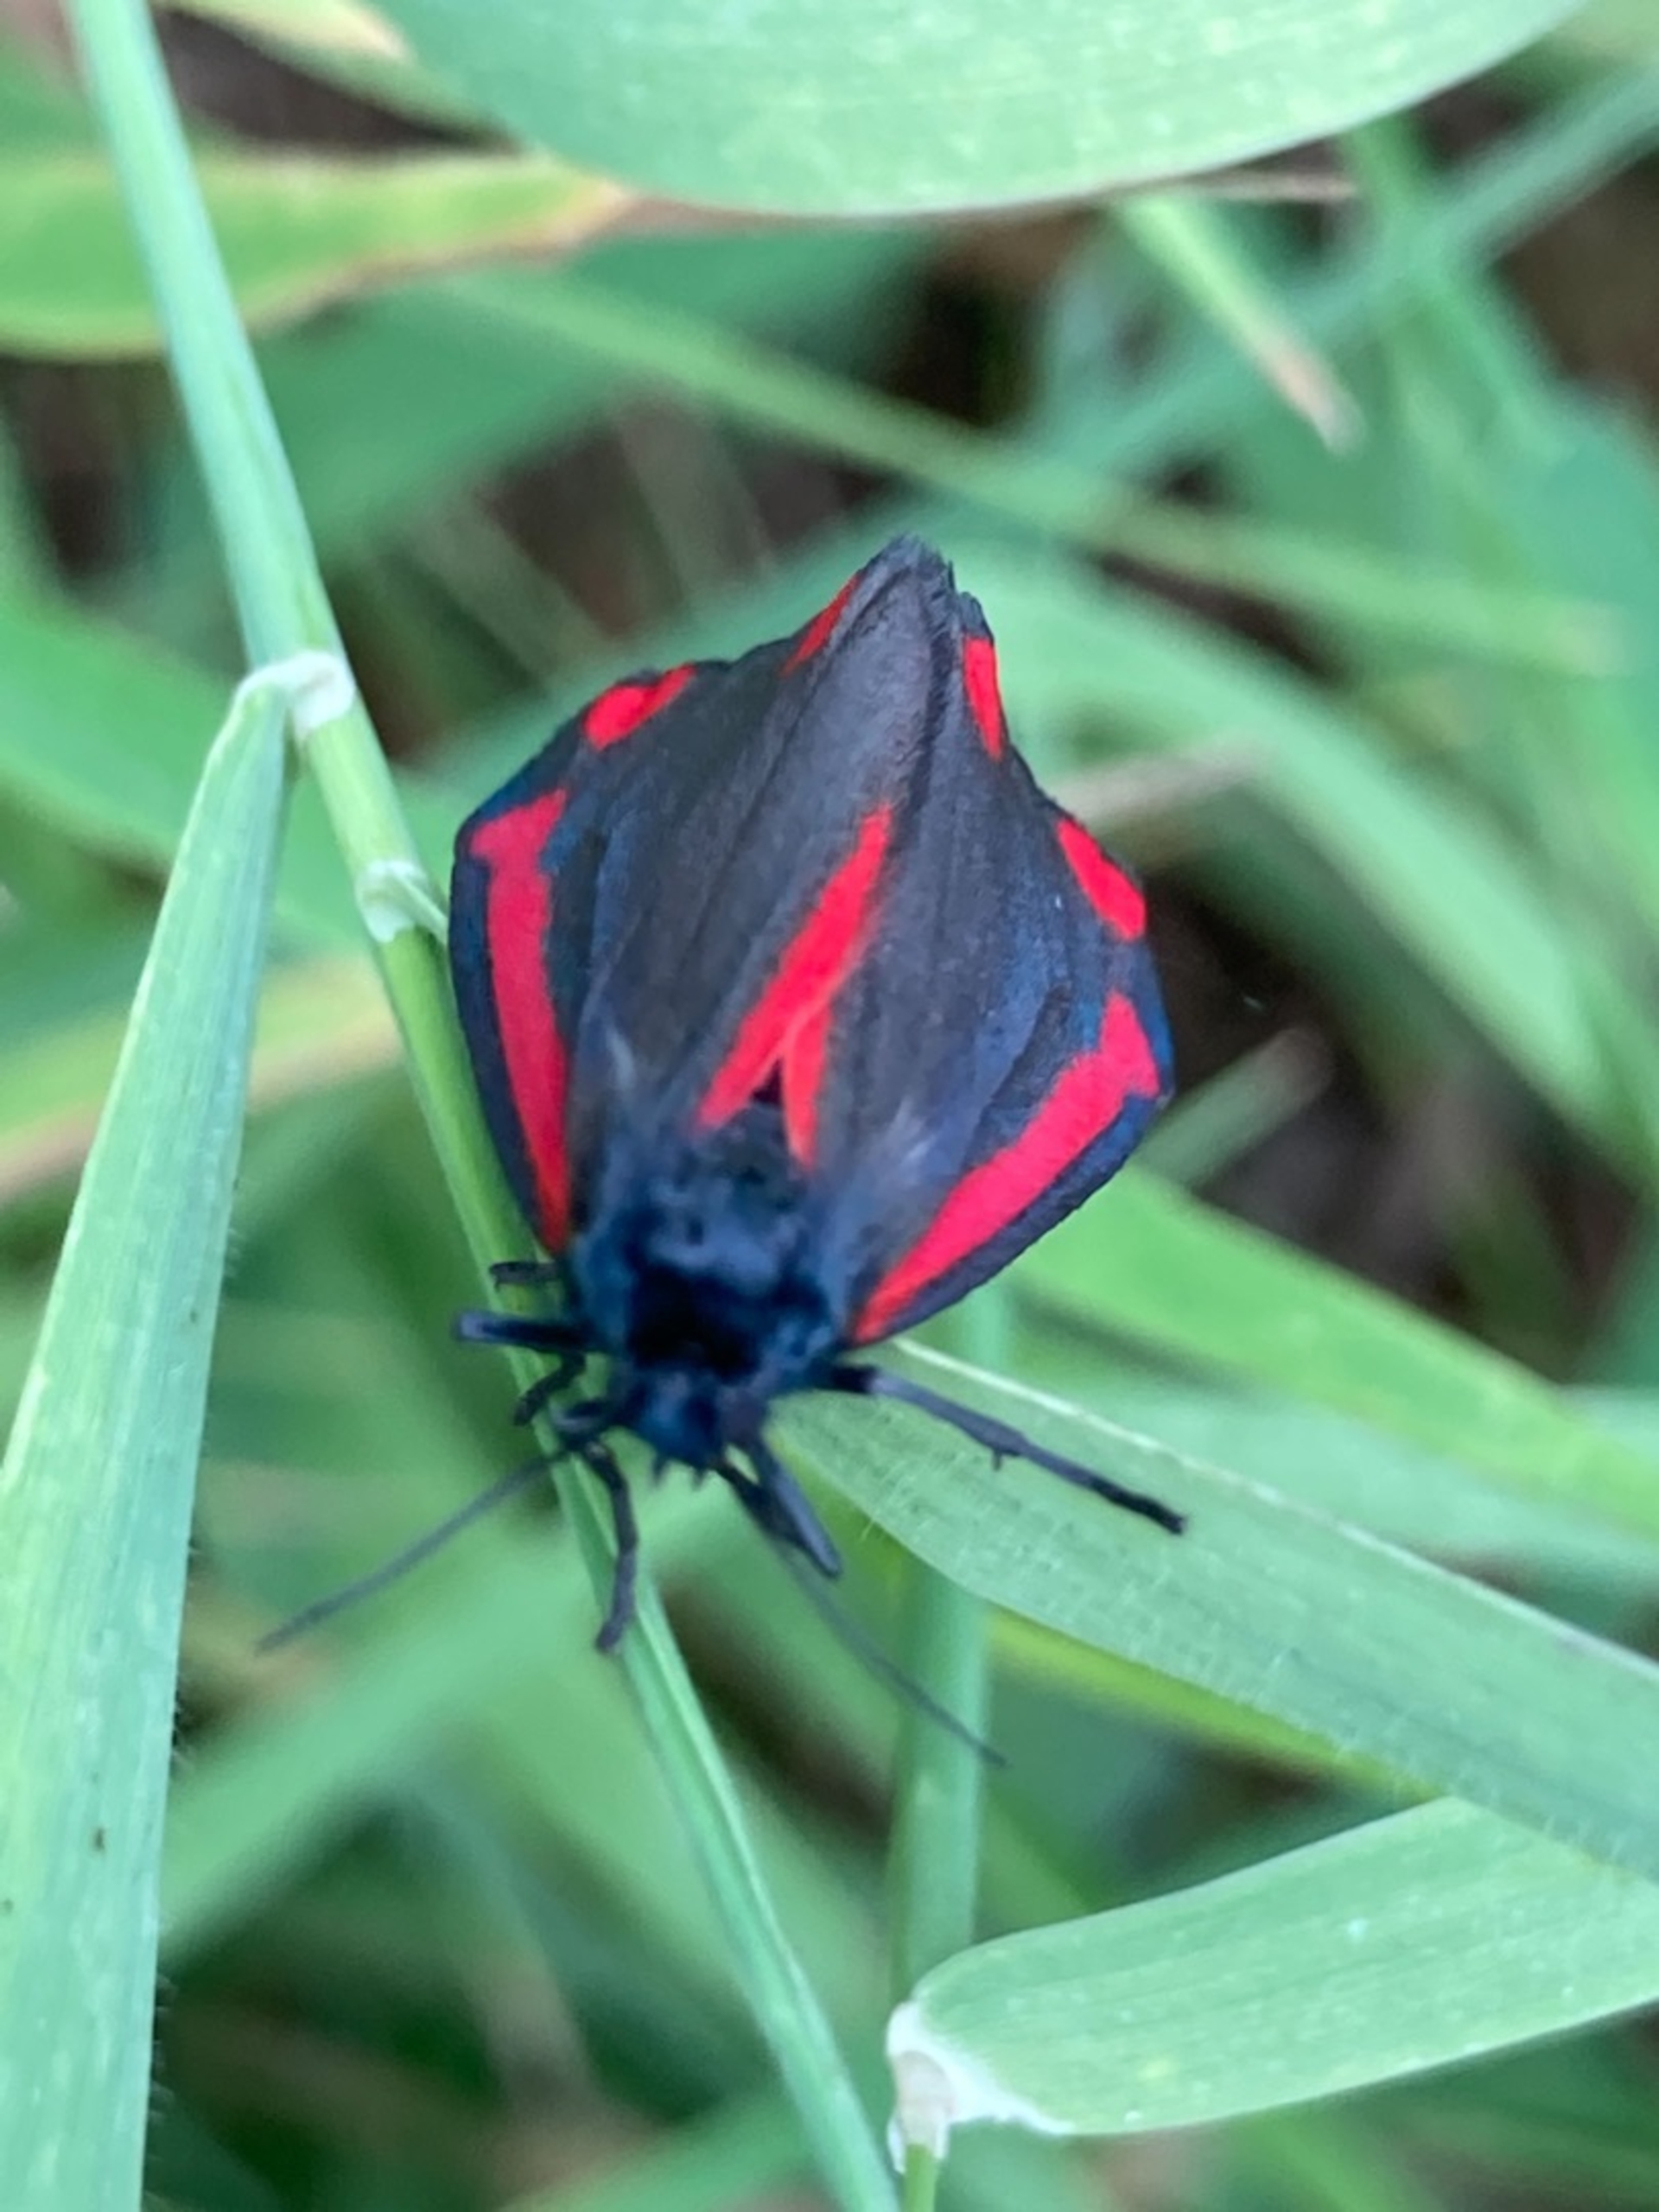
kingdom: Animalia
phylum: Arthropoda
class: Insecta
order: Lepidoptera
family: Erebidae
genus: Tyria
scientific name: Tyria jacobaeae
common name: Blodplet
